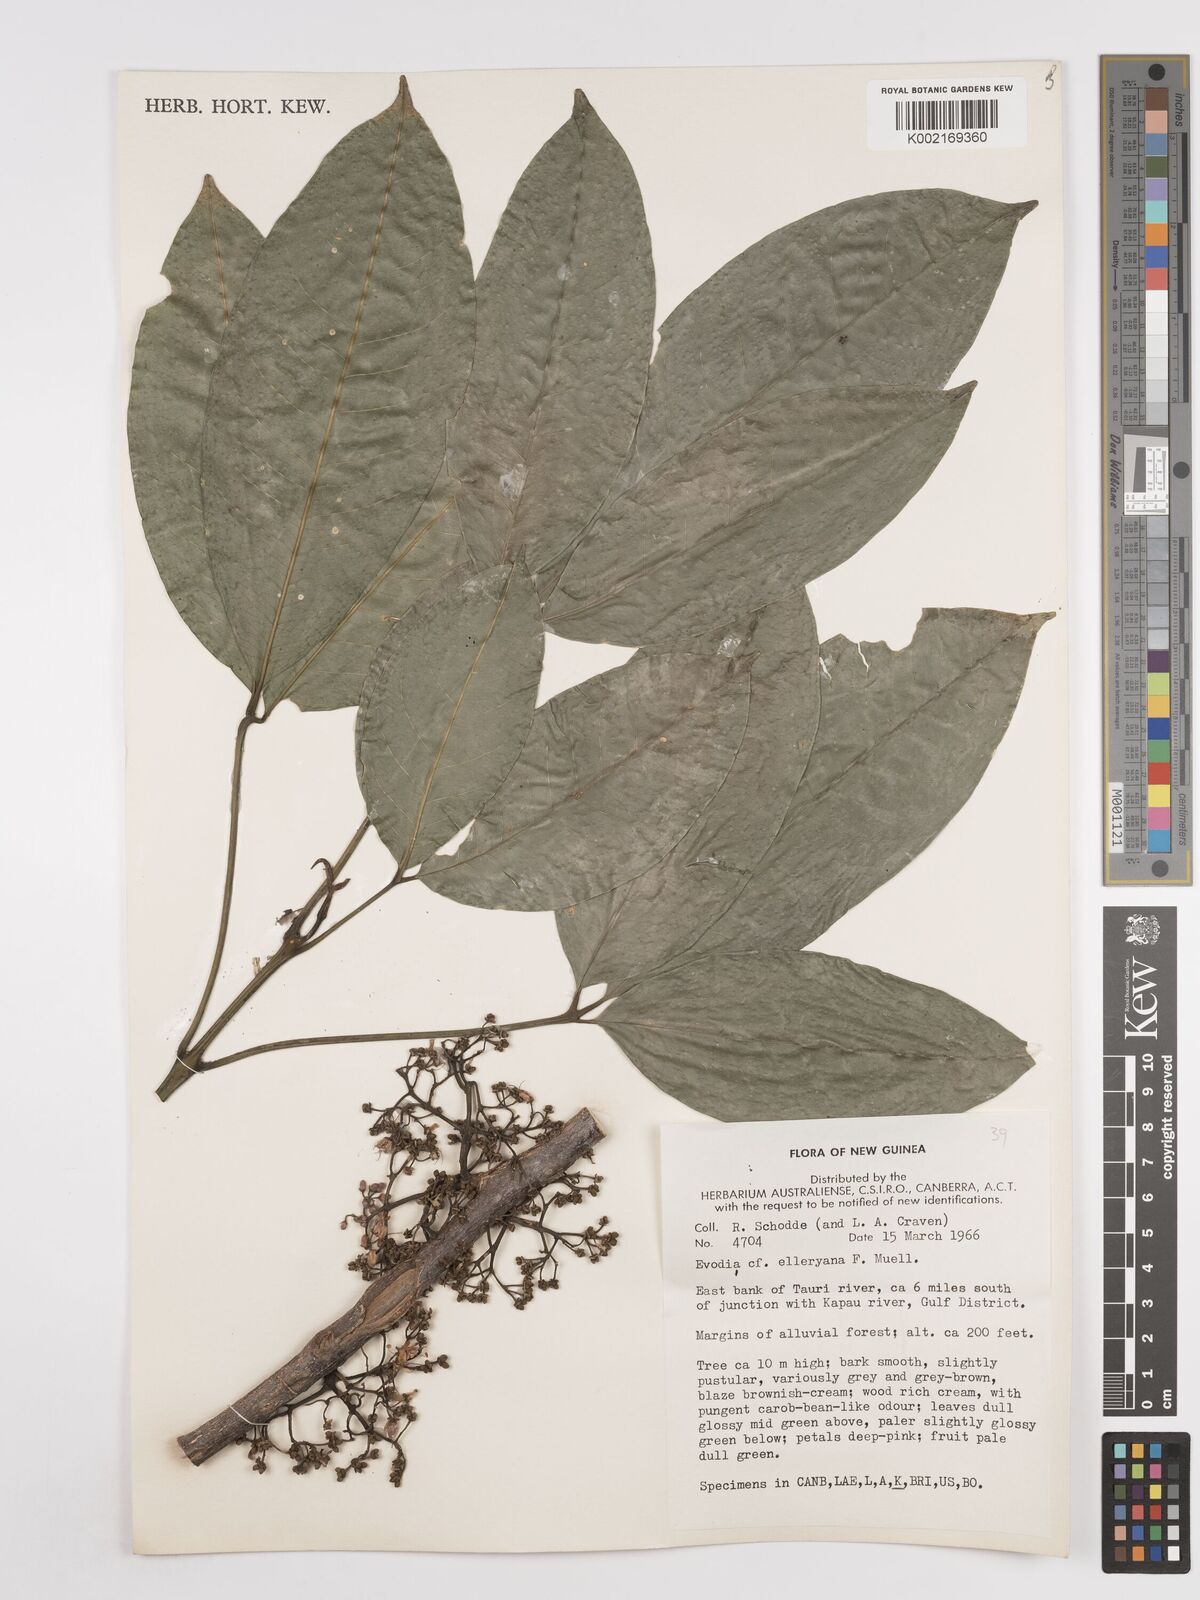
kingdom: Plantae
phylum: Tracheophyta
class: Magnoliopsida
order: Sapindales
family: Rutaceae
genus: Melicope
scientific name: Melicope elleryana
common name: Pink euodia
